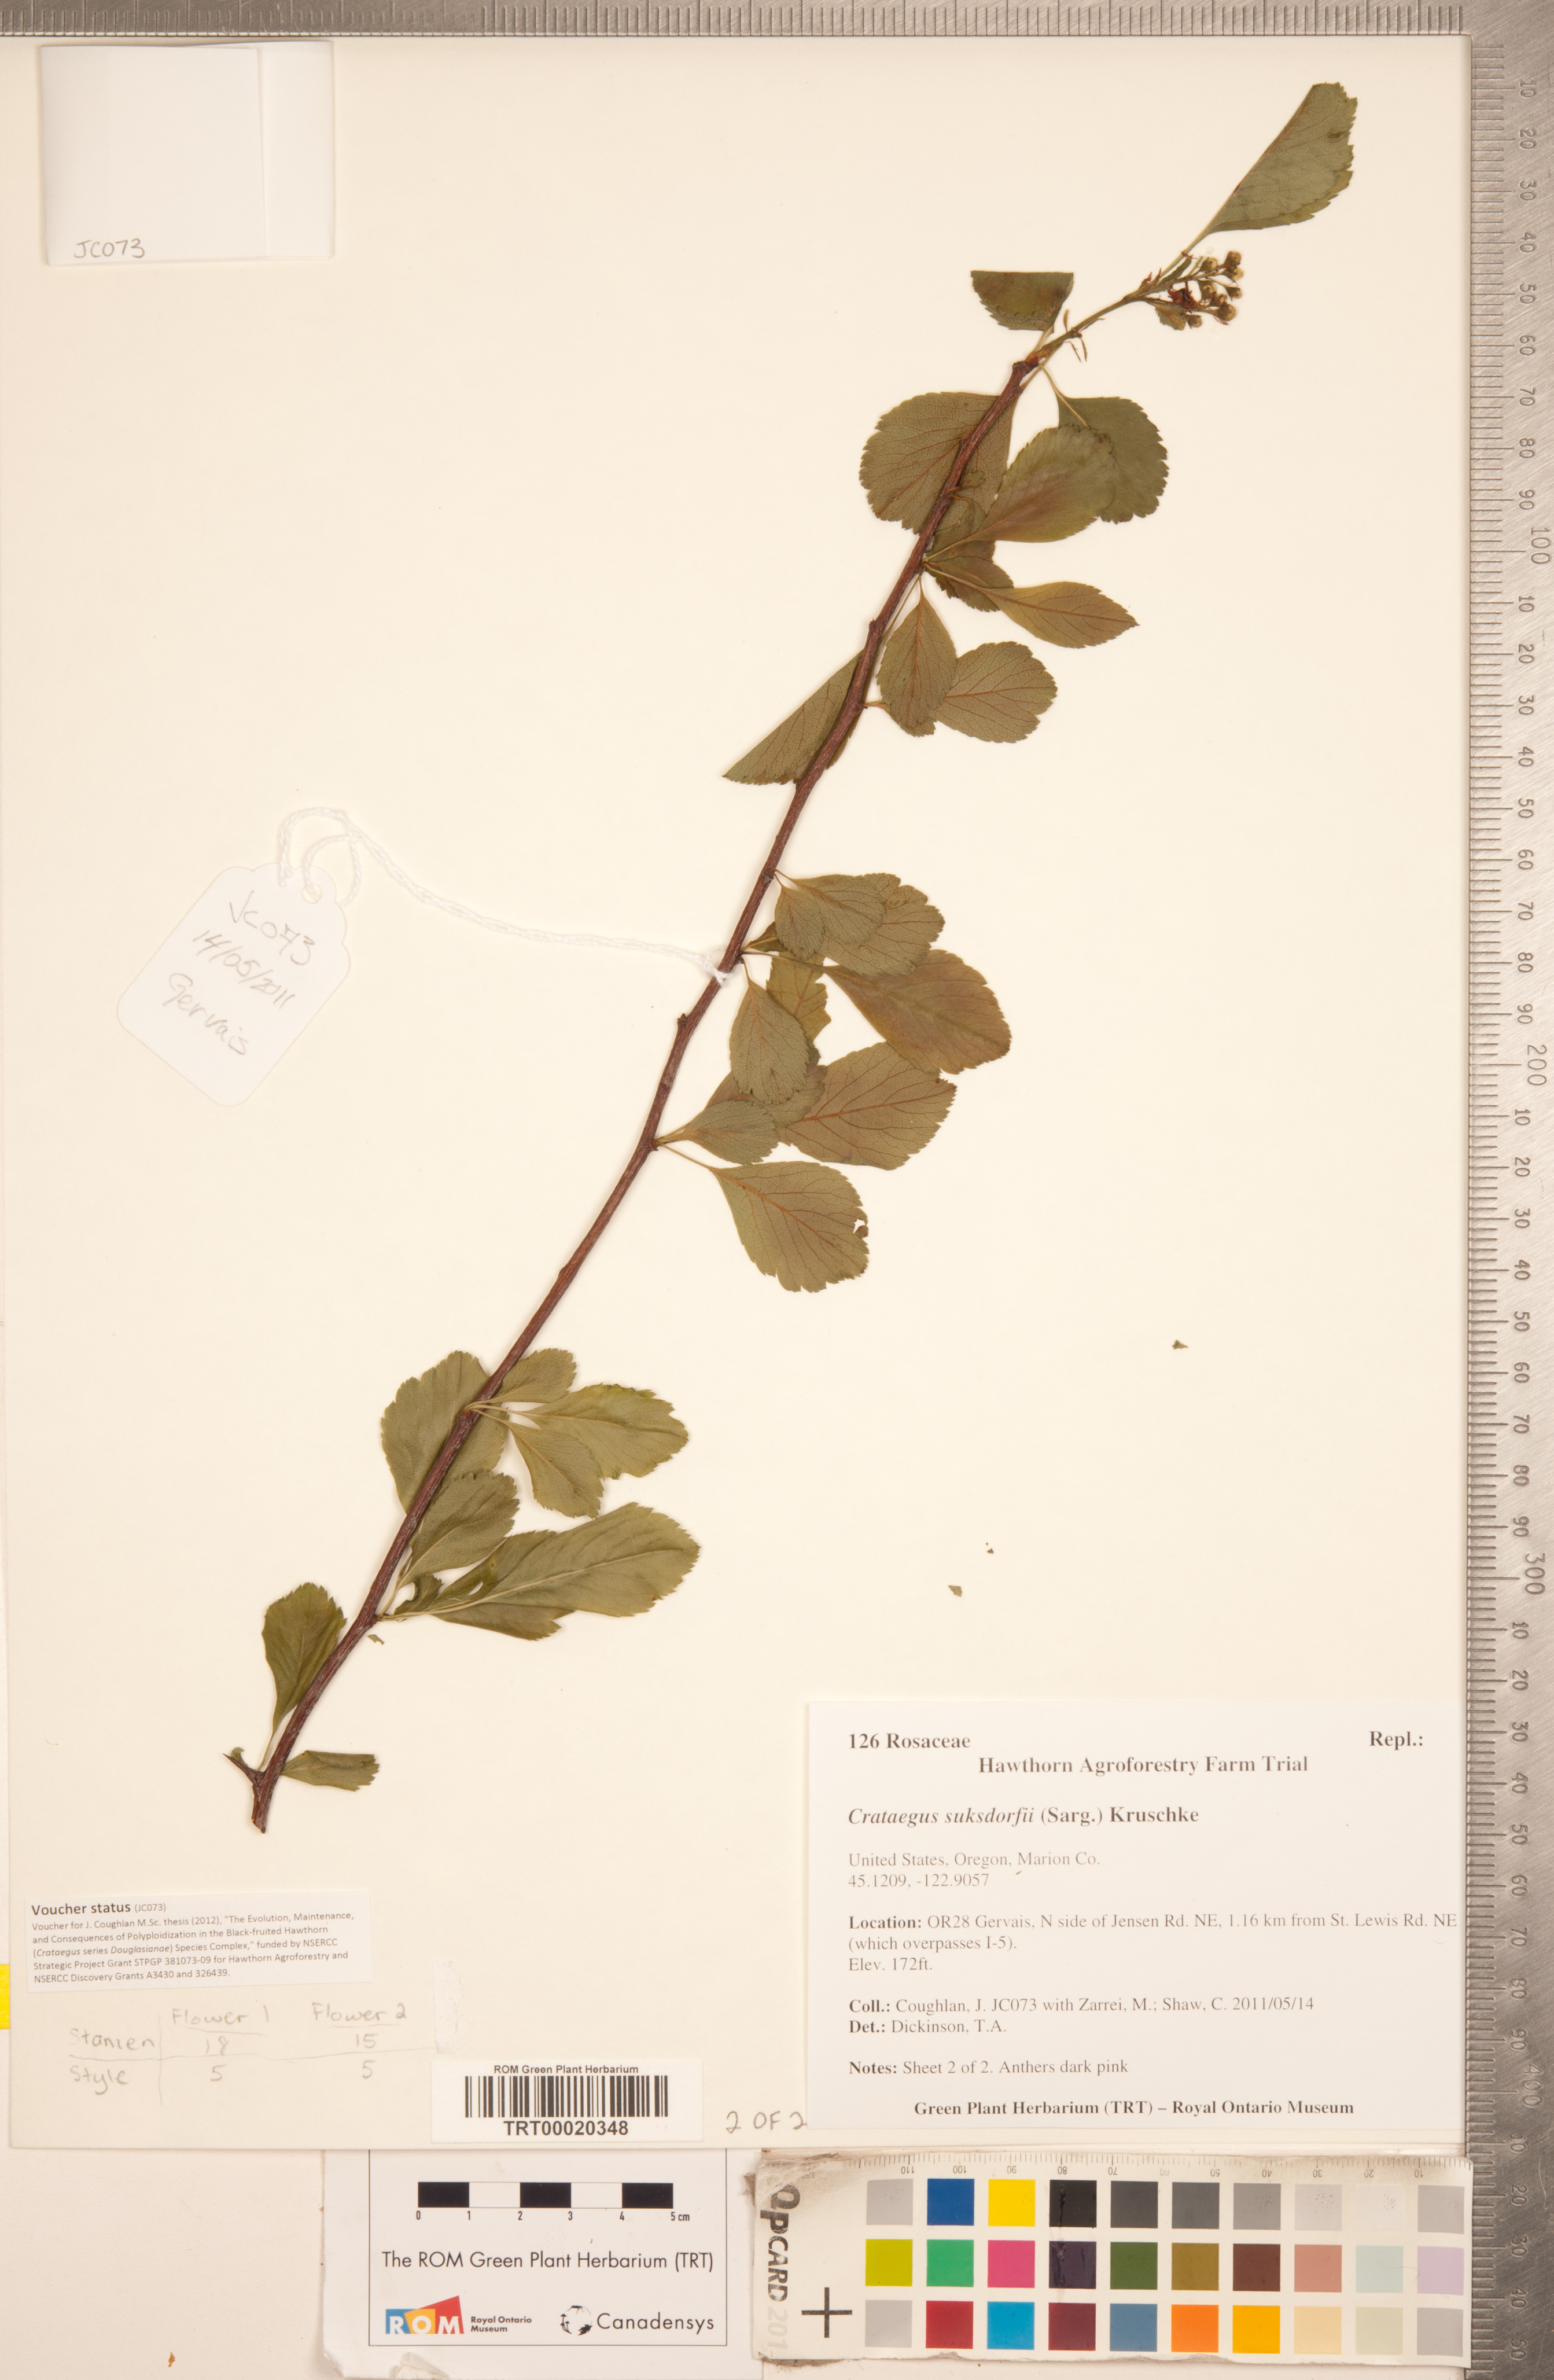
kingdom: Plantae
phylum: Tracheophyta
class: Magnoliopsida
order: Rosales
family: Rosaceae
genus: Crataegus
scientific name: Crataegus gaylussacia
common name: Huckleberry hawthorn
